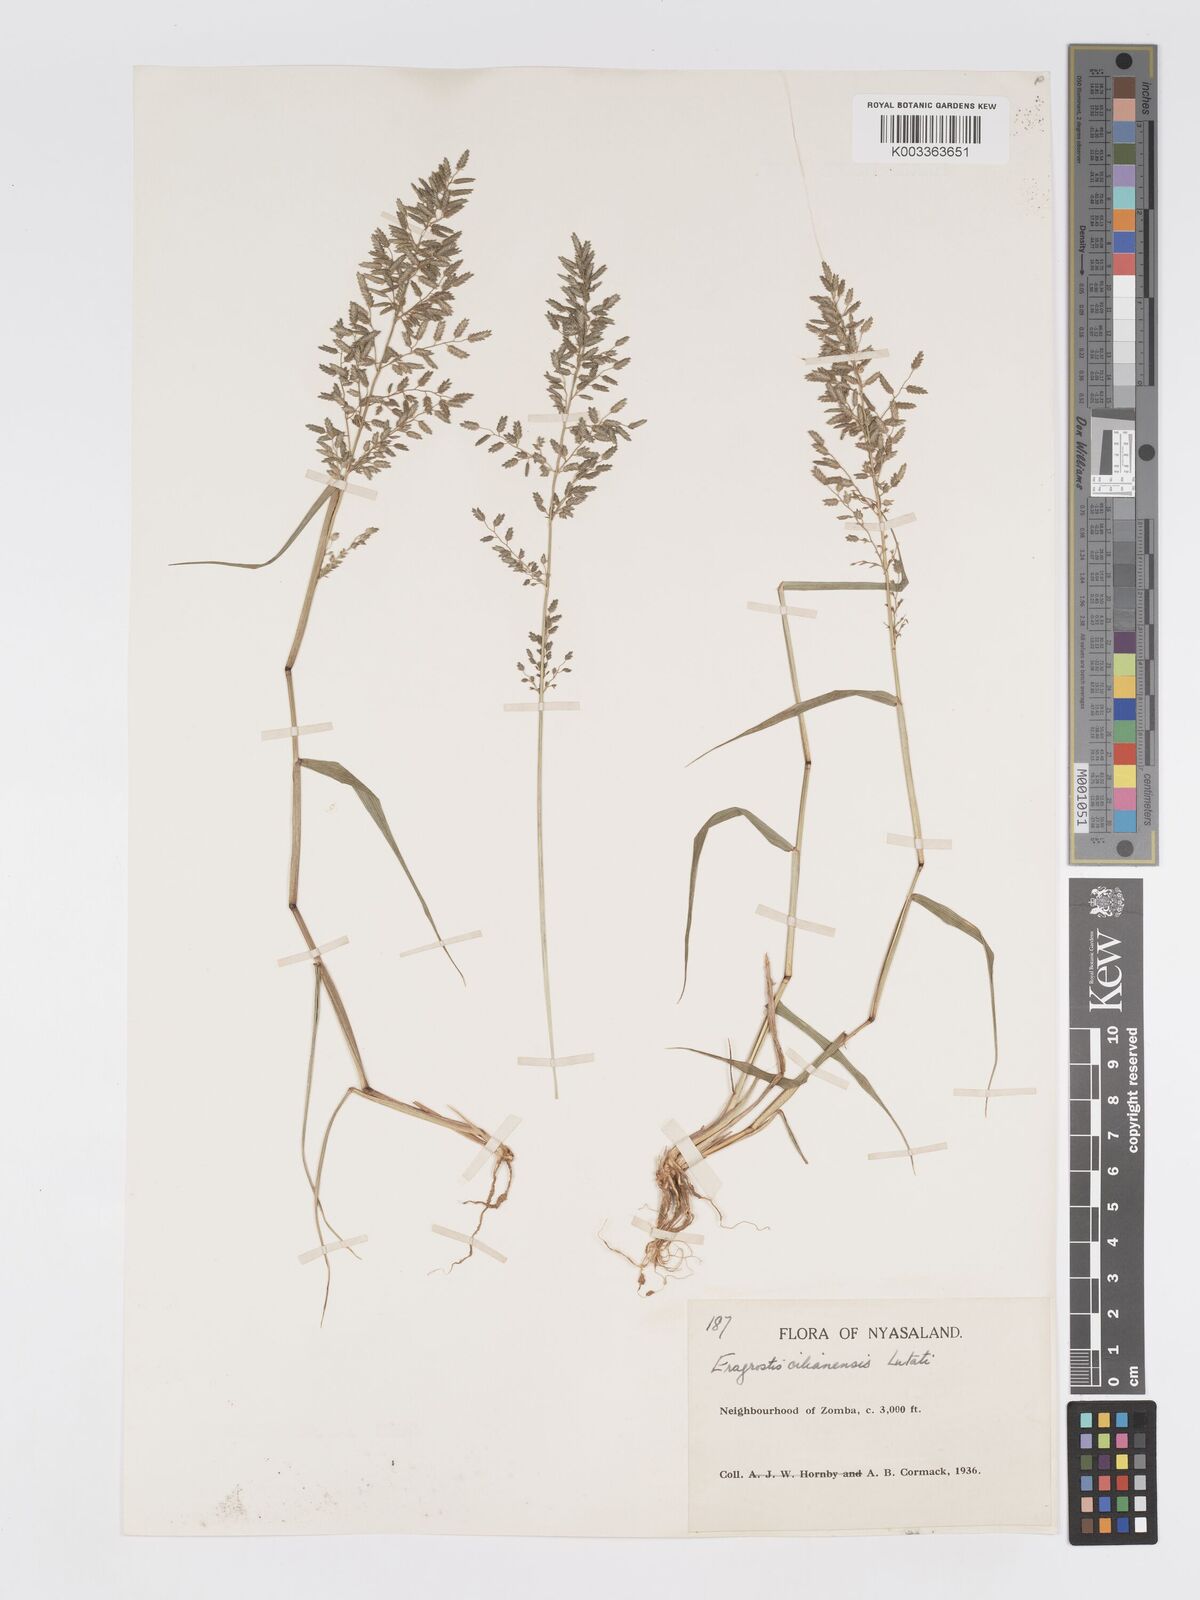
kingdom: Plantae
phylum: Tracheophyta
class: Liliopsida
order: Poales
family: Poaceae
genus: Eragrostis
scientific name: Eragrostis cilianensis
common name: Stinkgrass
